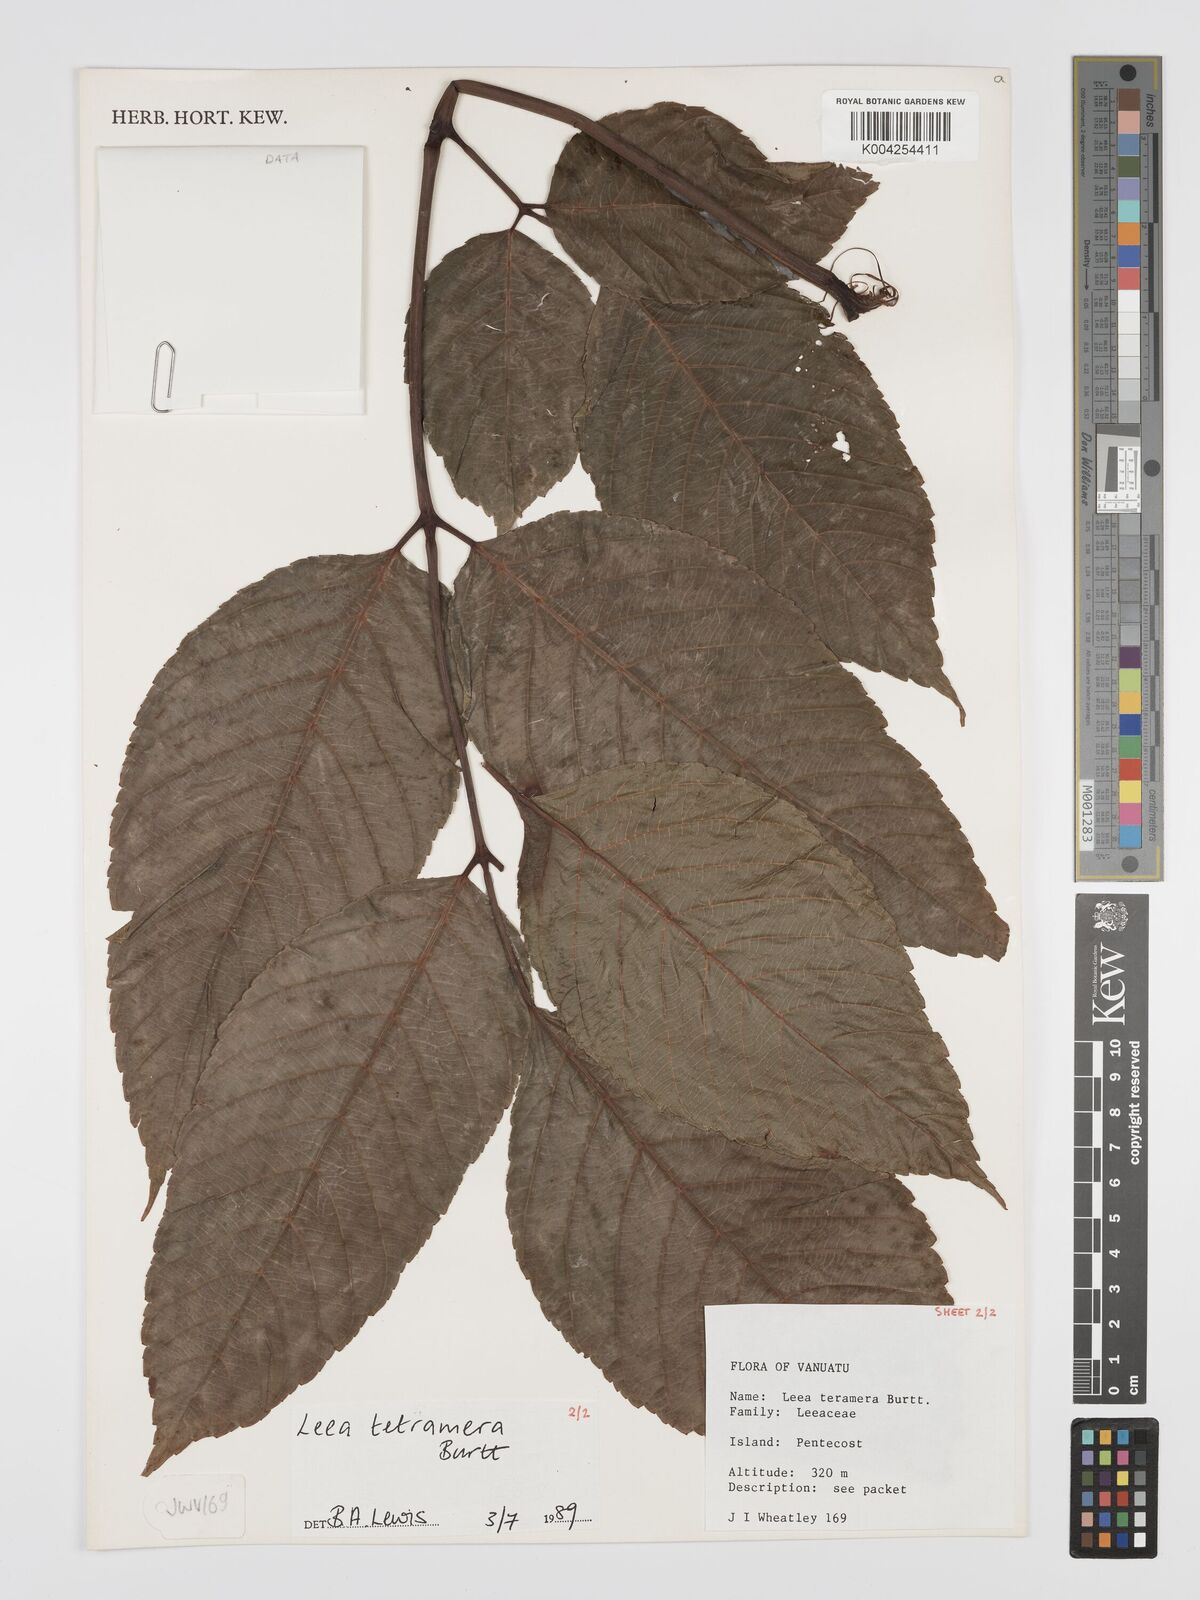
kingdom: Plantae
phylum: Tracheophyta
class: Magnoliopsida
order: Vitales
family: Vitaceae
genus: Leea
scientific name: Leea tetramera
